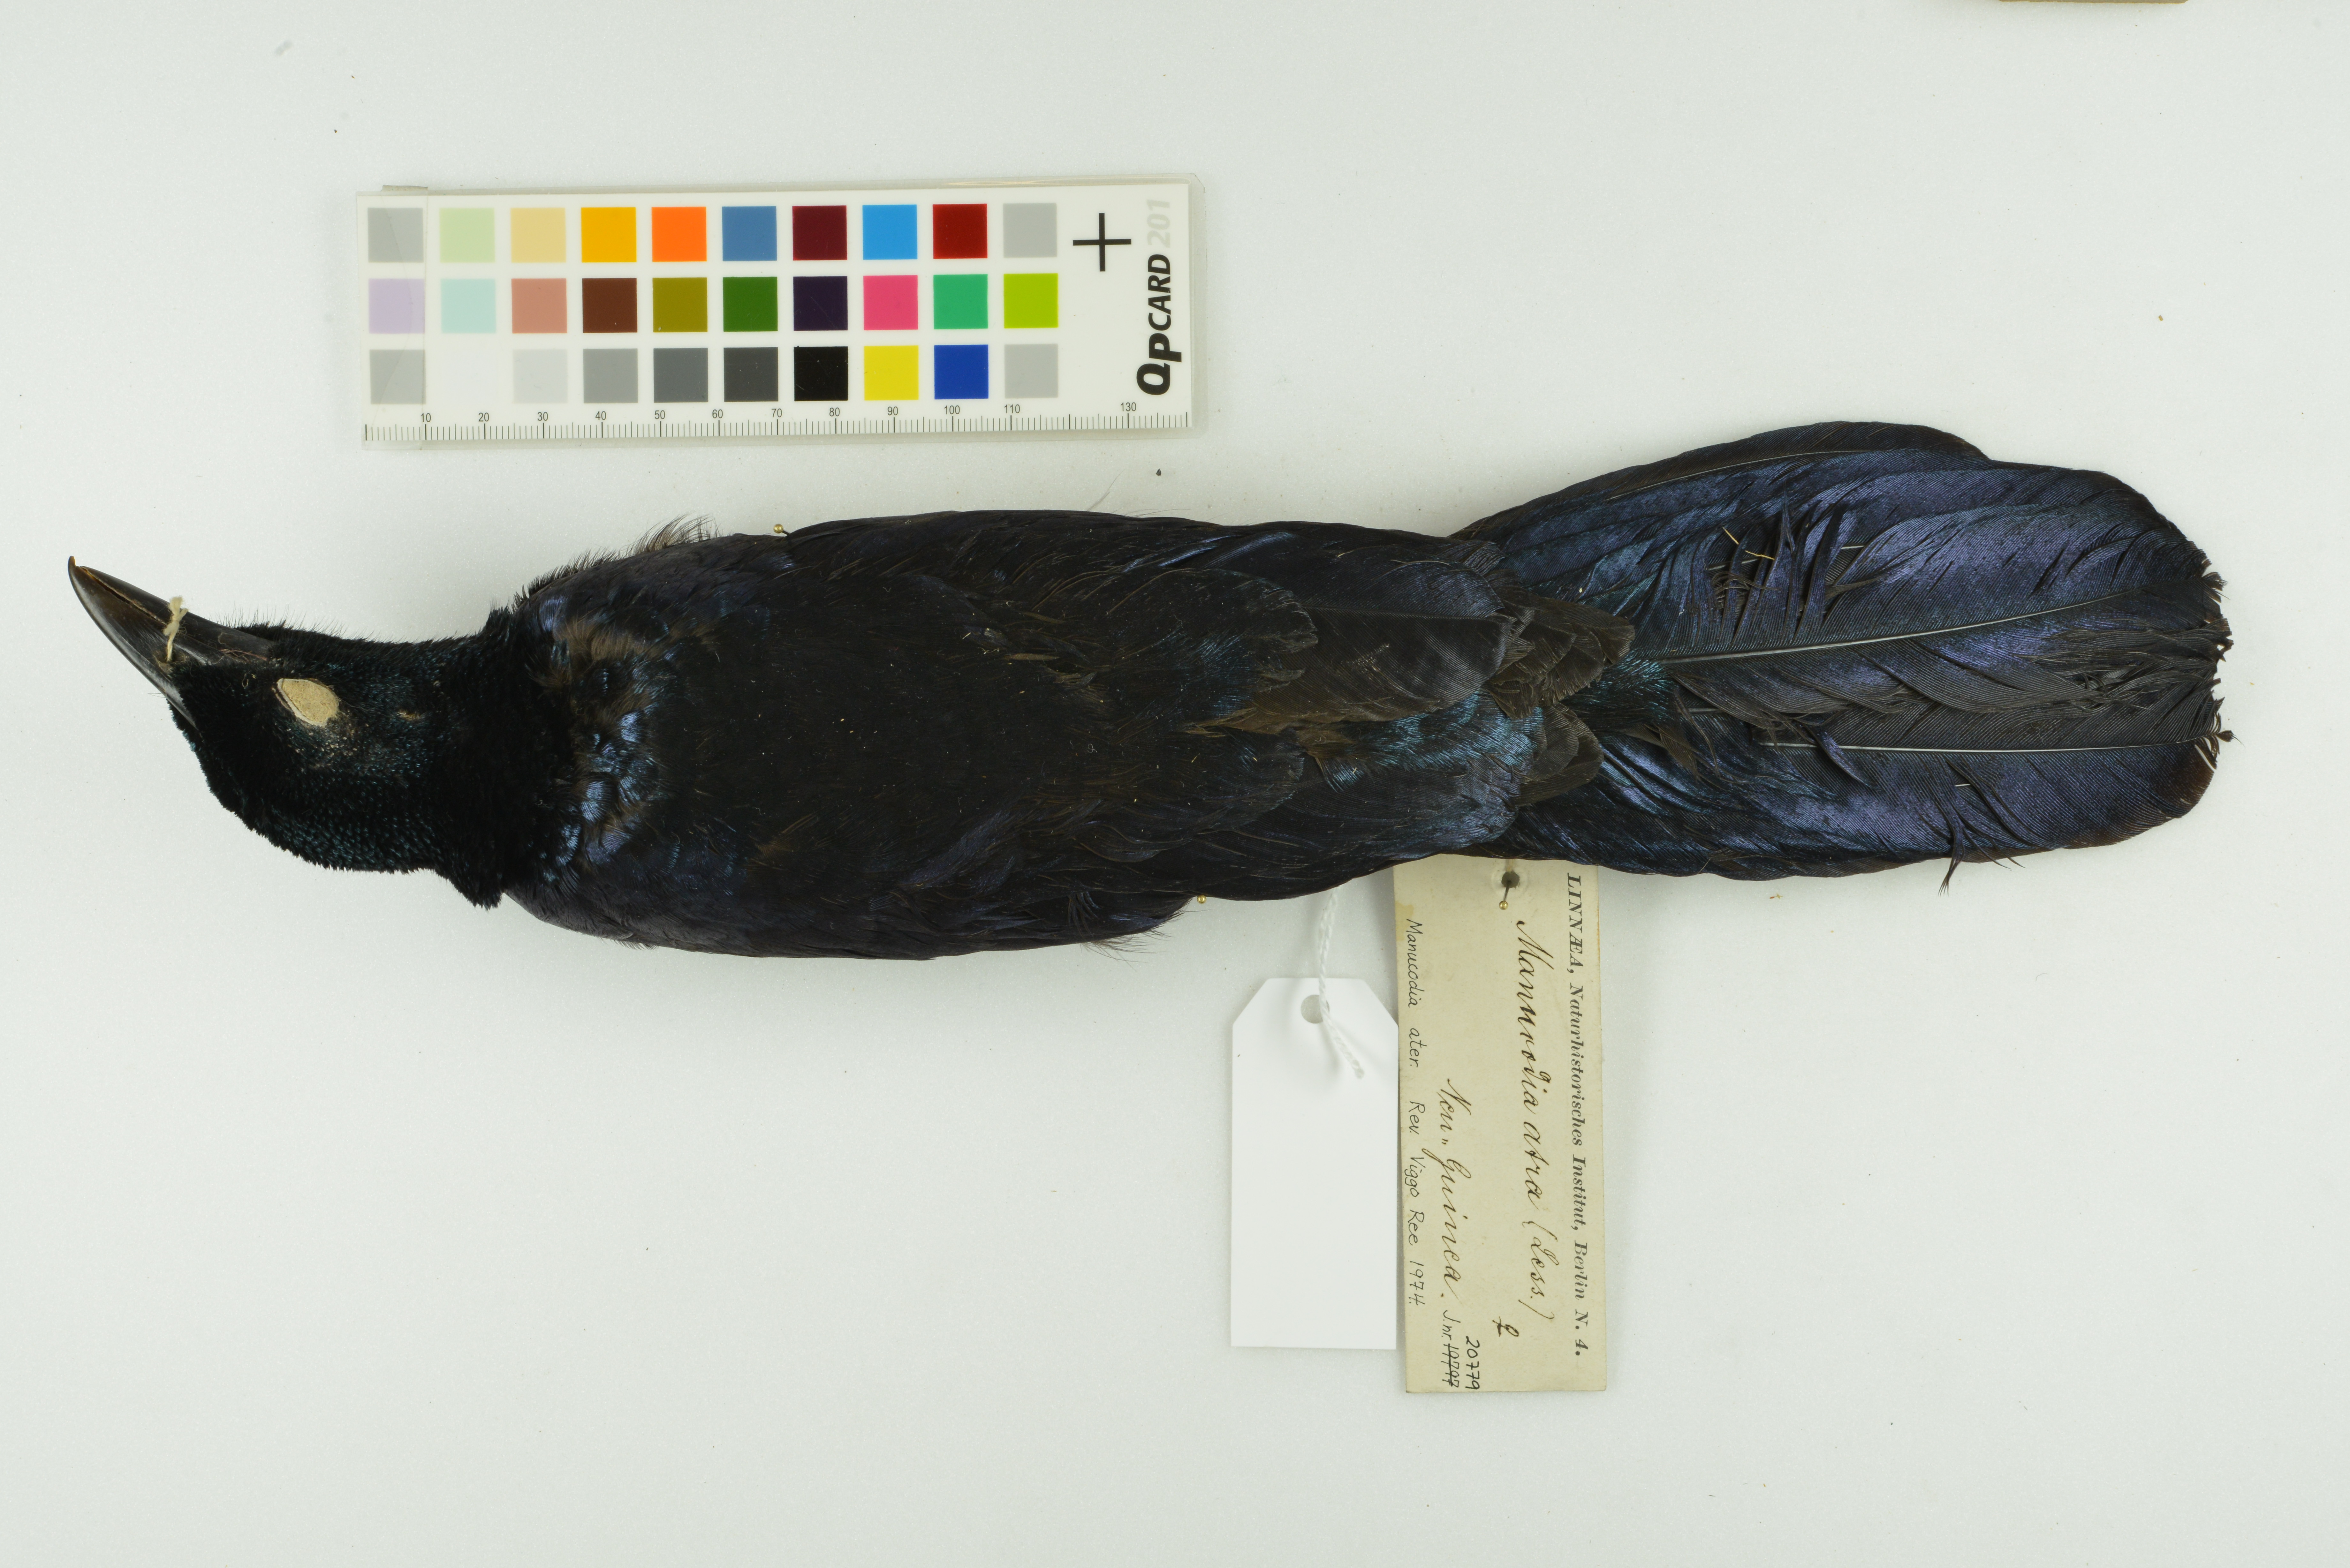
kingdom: Animalia
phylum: Chordata
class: Aves
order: Passeriformes
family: Paradisaeidae
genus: Manucodia
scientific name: Manucodia ater
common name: Glossy-mantled manucode
